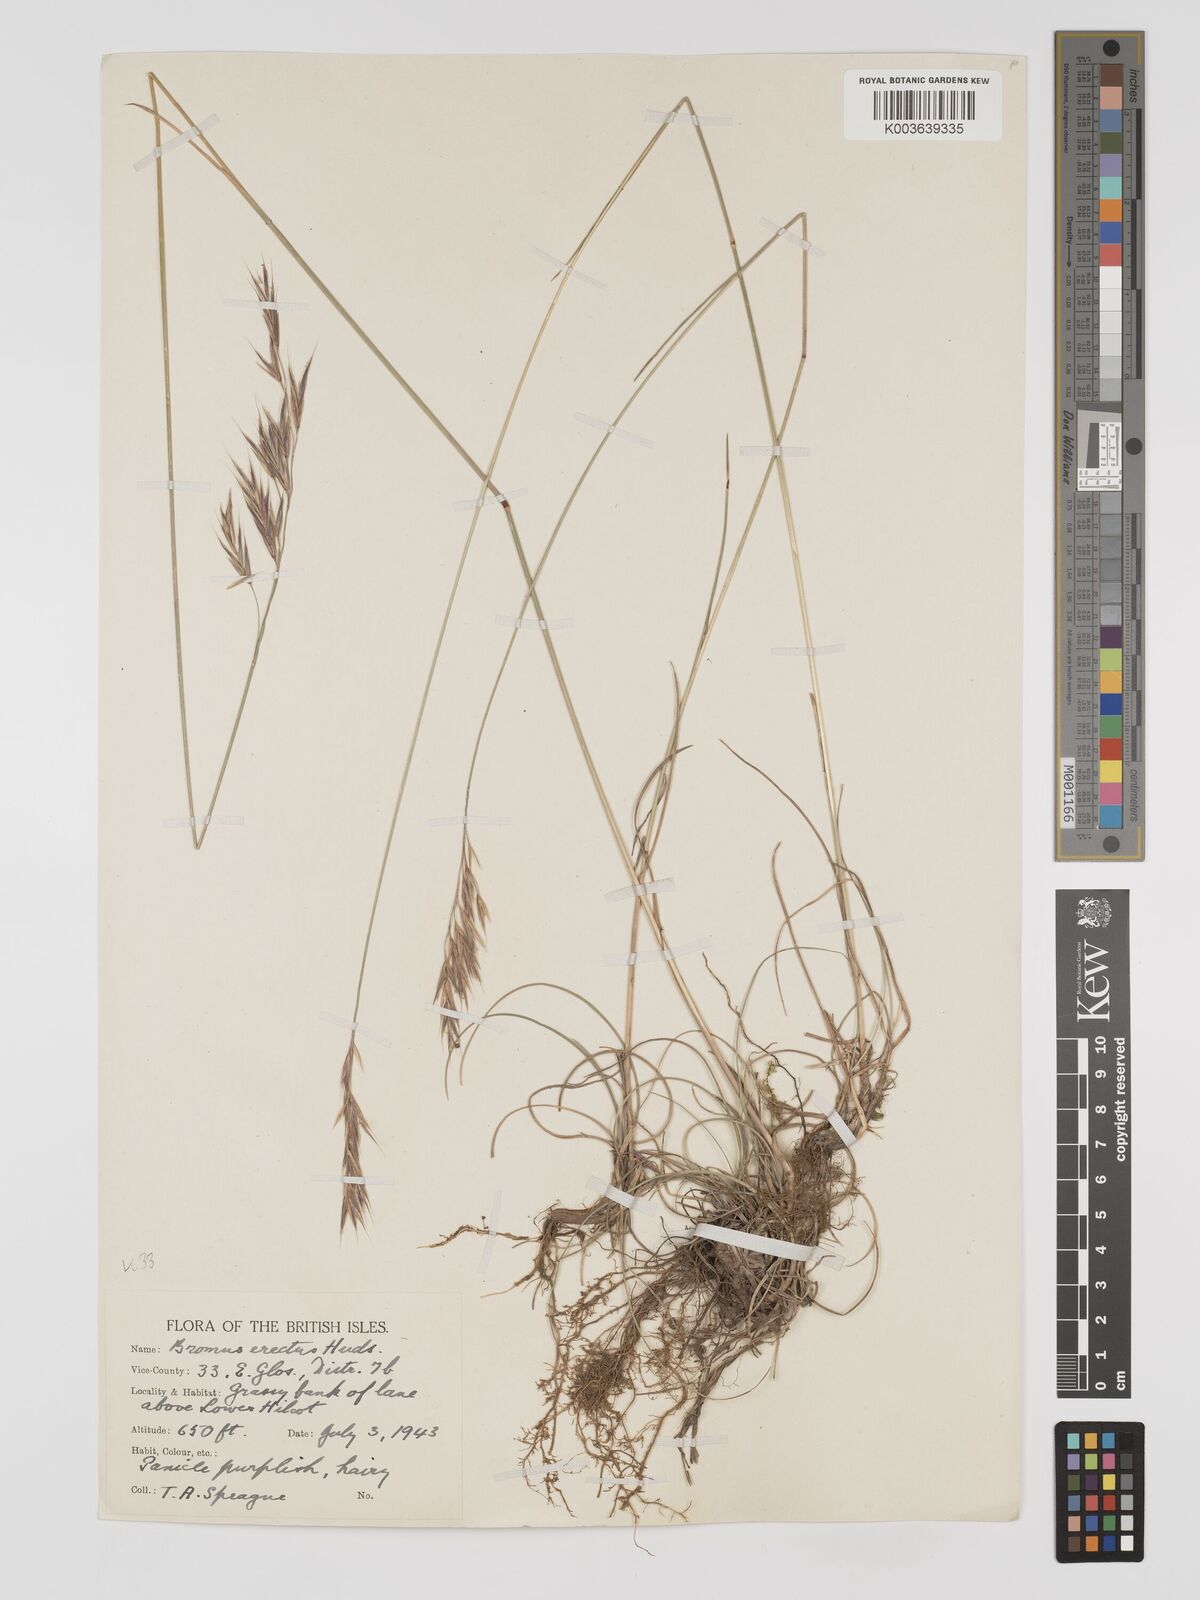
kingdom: Plantae
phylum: Tracheophyta
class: Liliopsida
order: Poales
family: Poaceae
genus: Bromus
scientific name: Bromus erectus
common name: Erect brome
